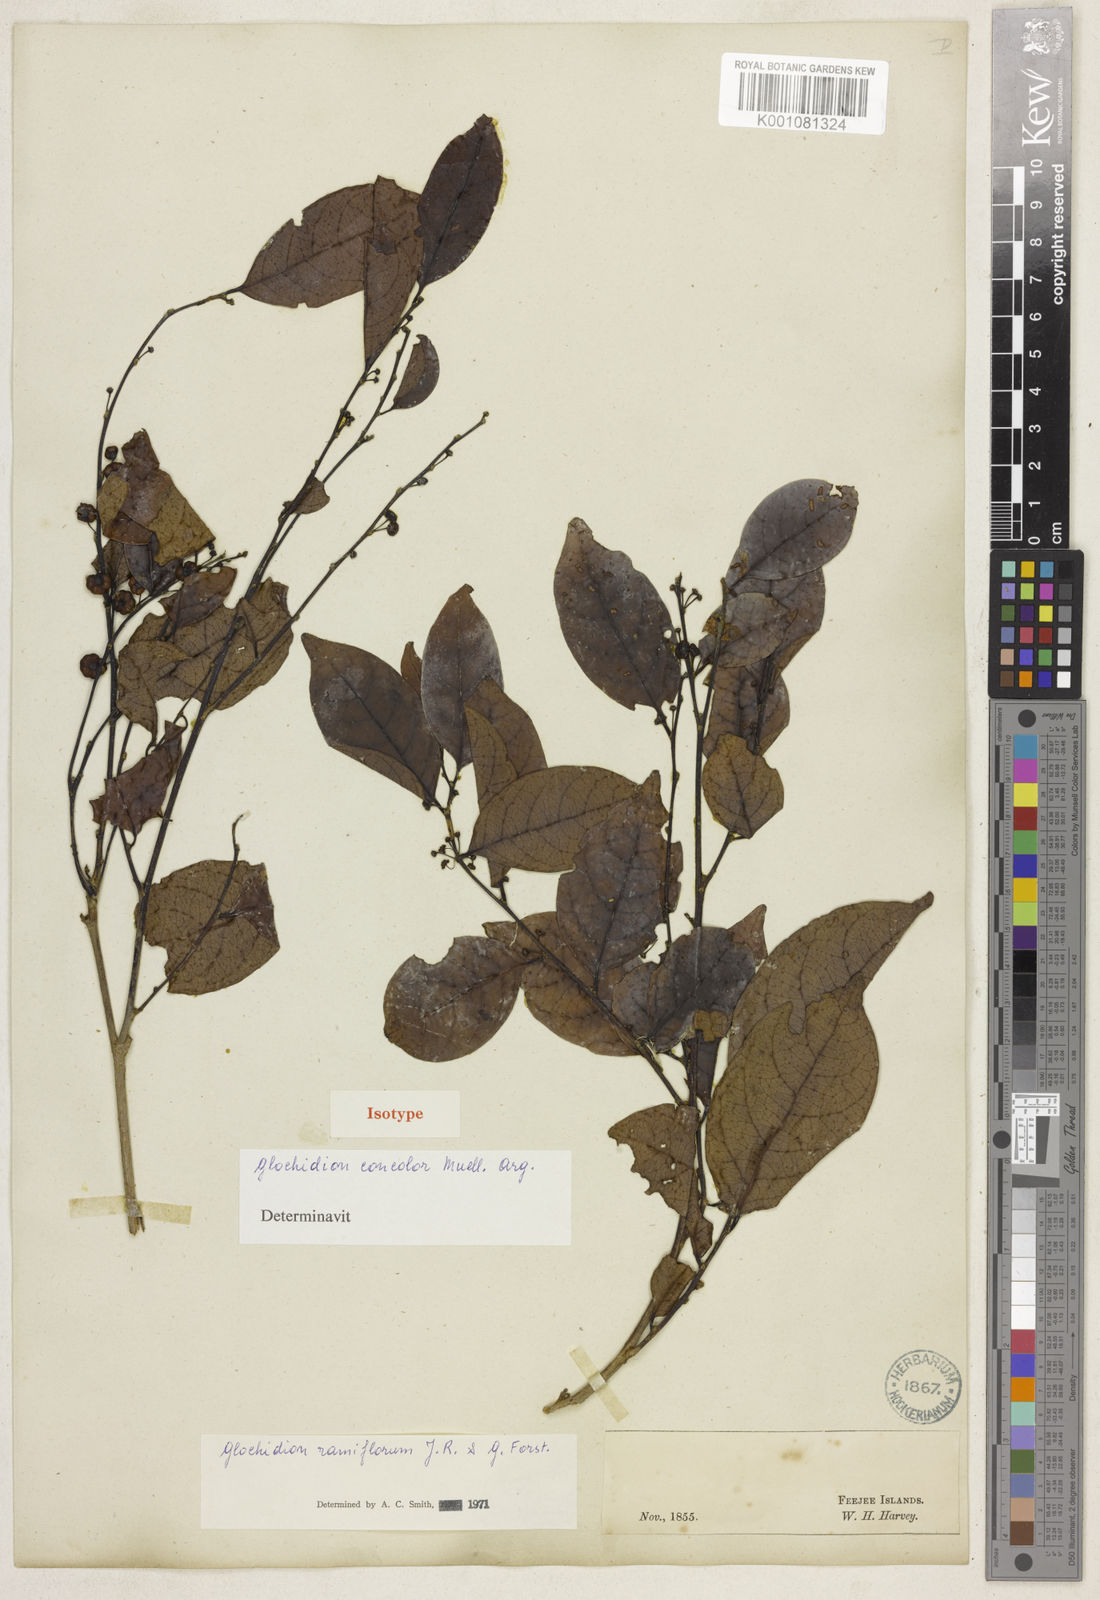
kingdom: Plantae
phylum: Tracheophyta
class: Magnoliopsida
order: Malpighiales
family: Phyllanthaceae
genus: Glochidion
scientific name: Glochidion ramiflorum
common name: Masame
